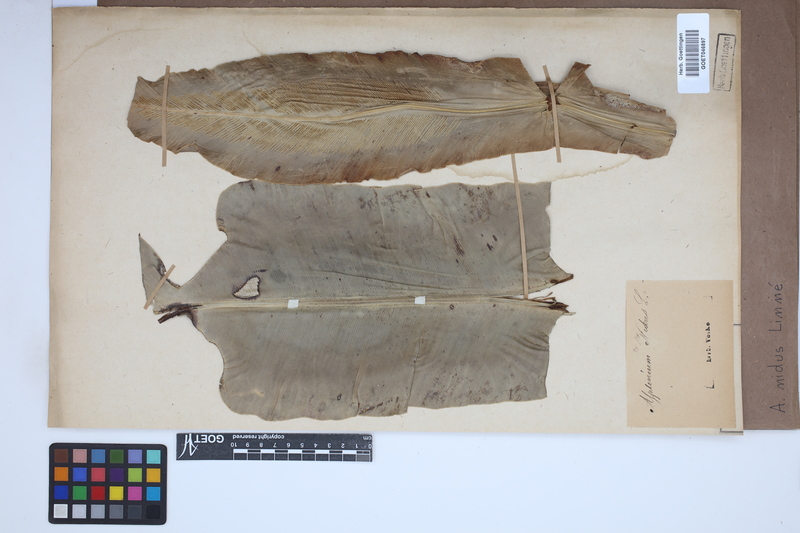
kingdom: Plantae
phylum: Tracheophyta
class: Polypodiopsida
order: Polypodiales
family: Aspleniaceae
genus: Asplenium
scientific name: Asplenium nidus
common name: Bird's-nest fern
